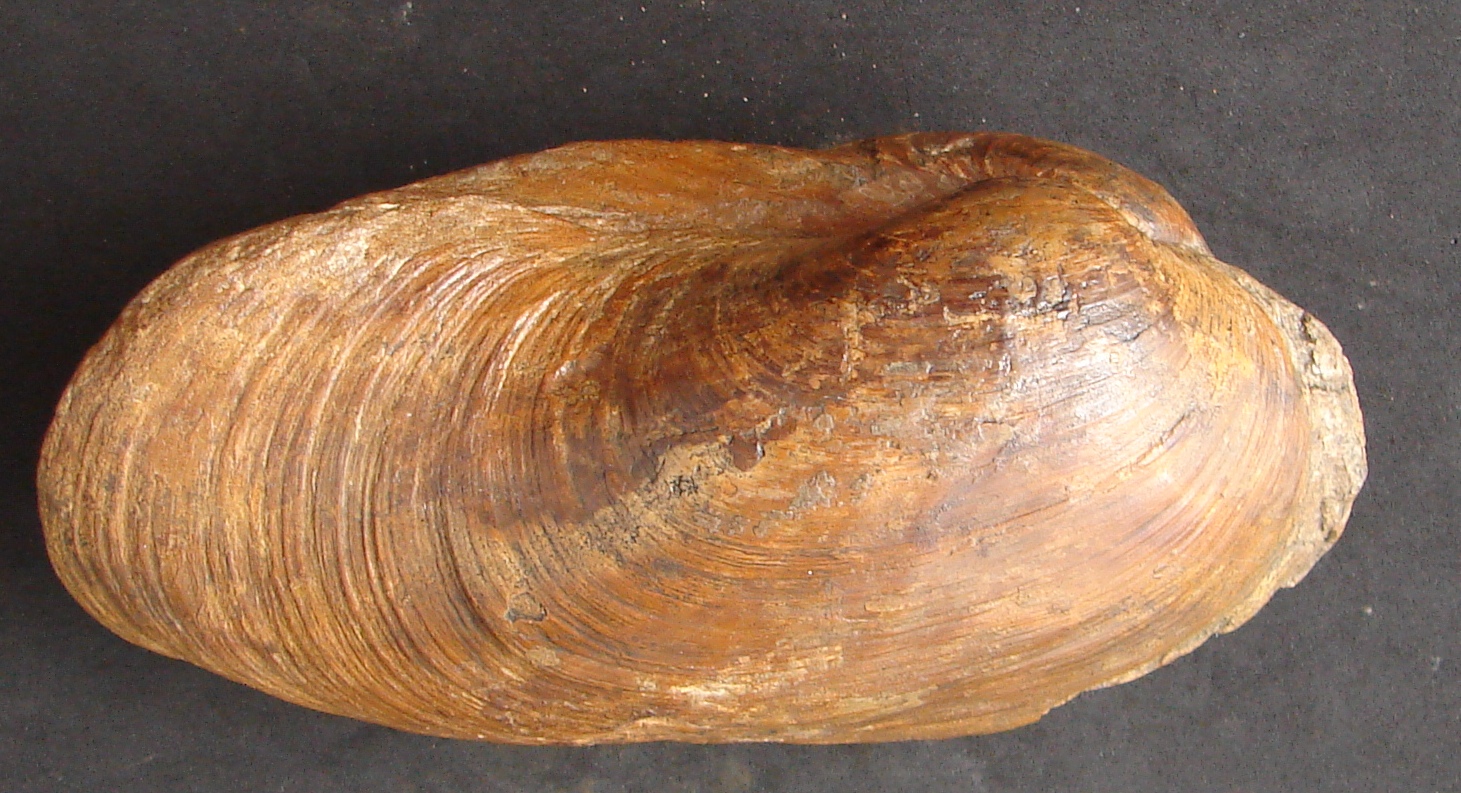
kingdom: Animalia
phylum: Mollusca
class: Bivalvia
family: Pholadomyidae
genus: Pholadomya
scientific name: Pholadomya fidicula
